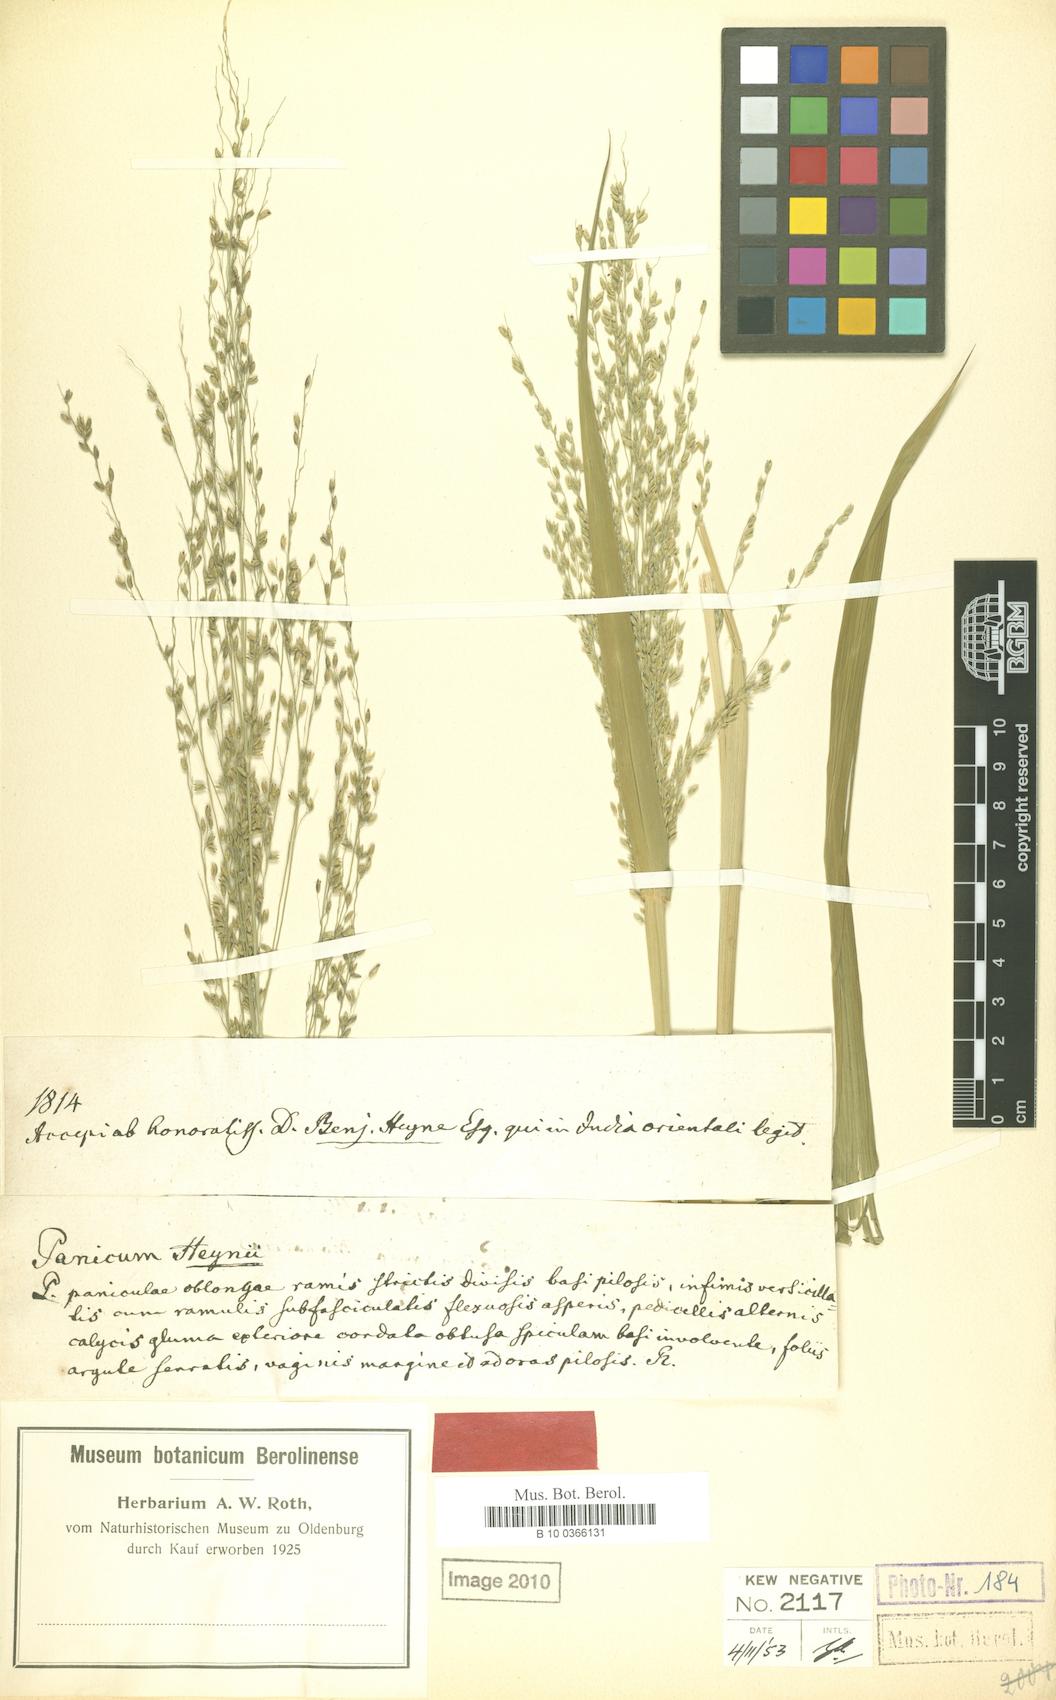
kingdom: Plantae
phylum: Tracheophyta
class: Liliopsida
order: Poales
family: Poaceae
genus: Megathyrsus
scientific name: Megathyrsus maximus
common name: Guineagrass
